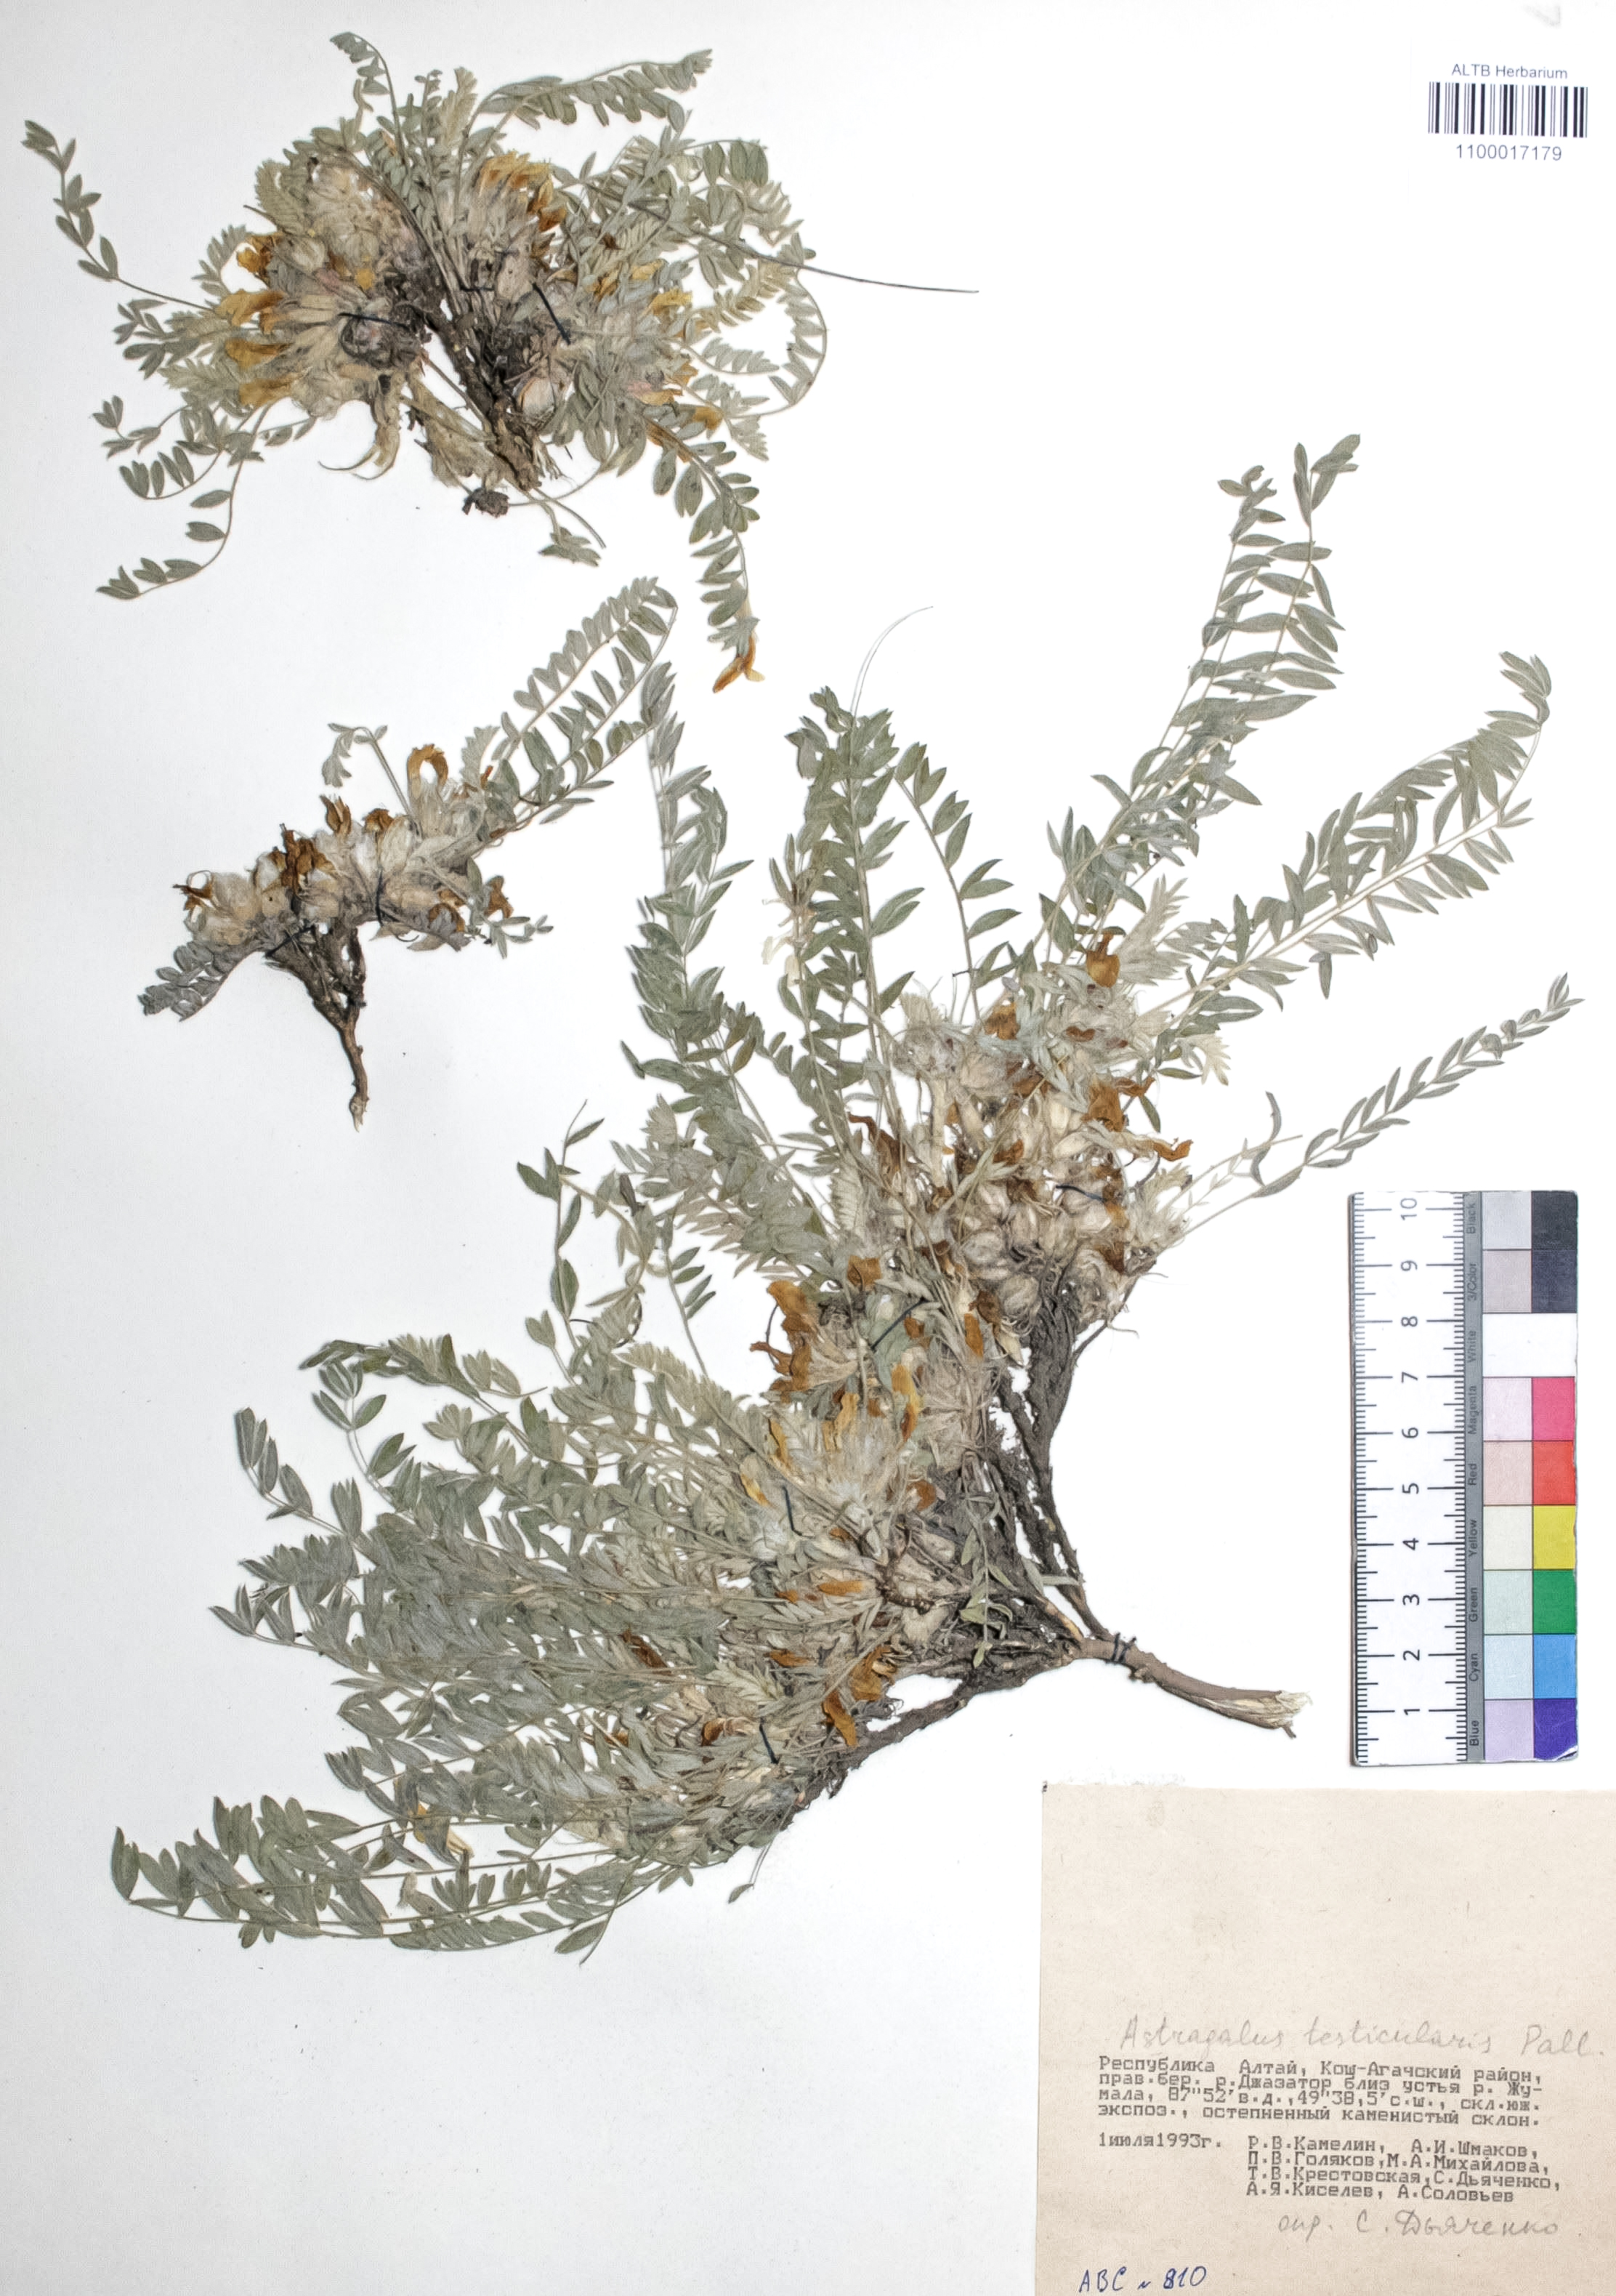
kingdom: Plantae
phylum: Tracheophyta
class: Magnoliopsida
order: Fabales
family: Fabaceae
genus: Astragalus
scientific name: Astragalus testiculatus
